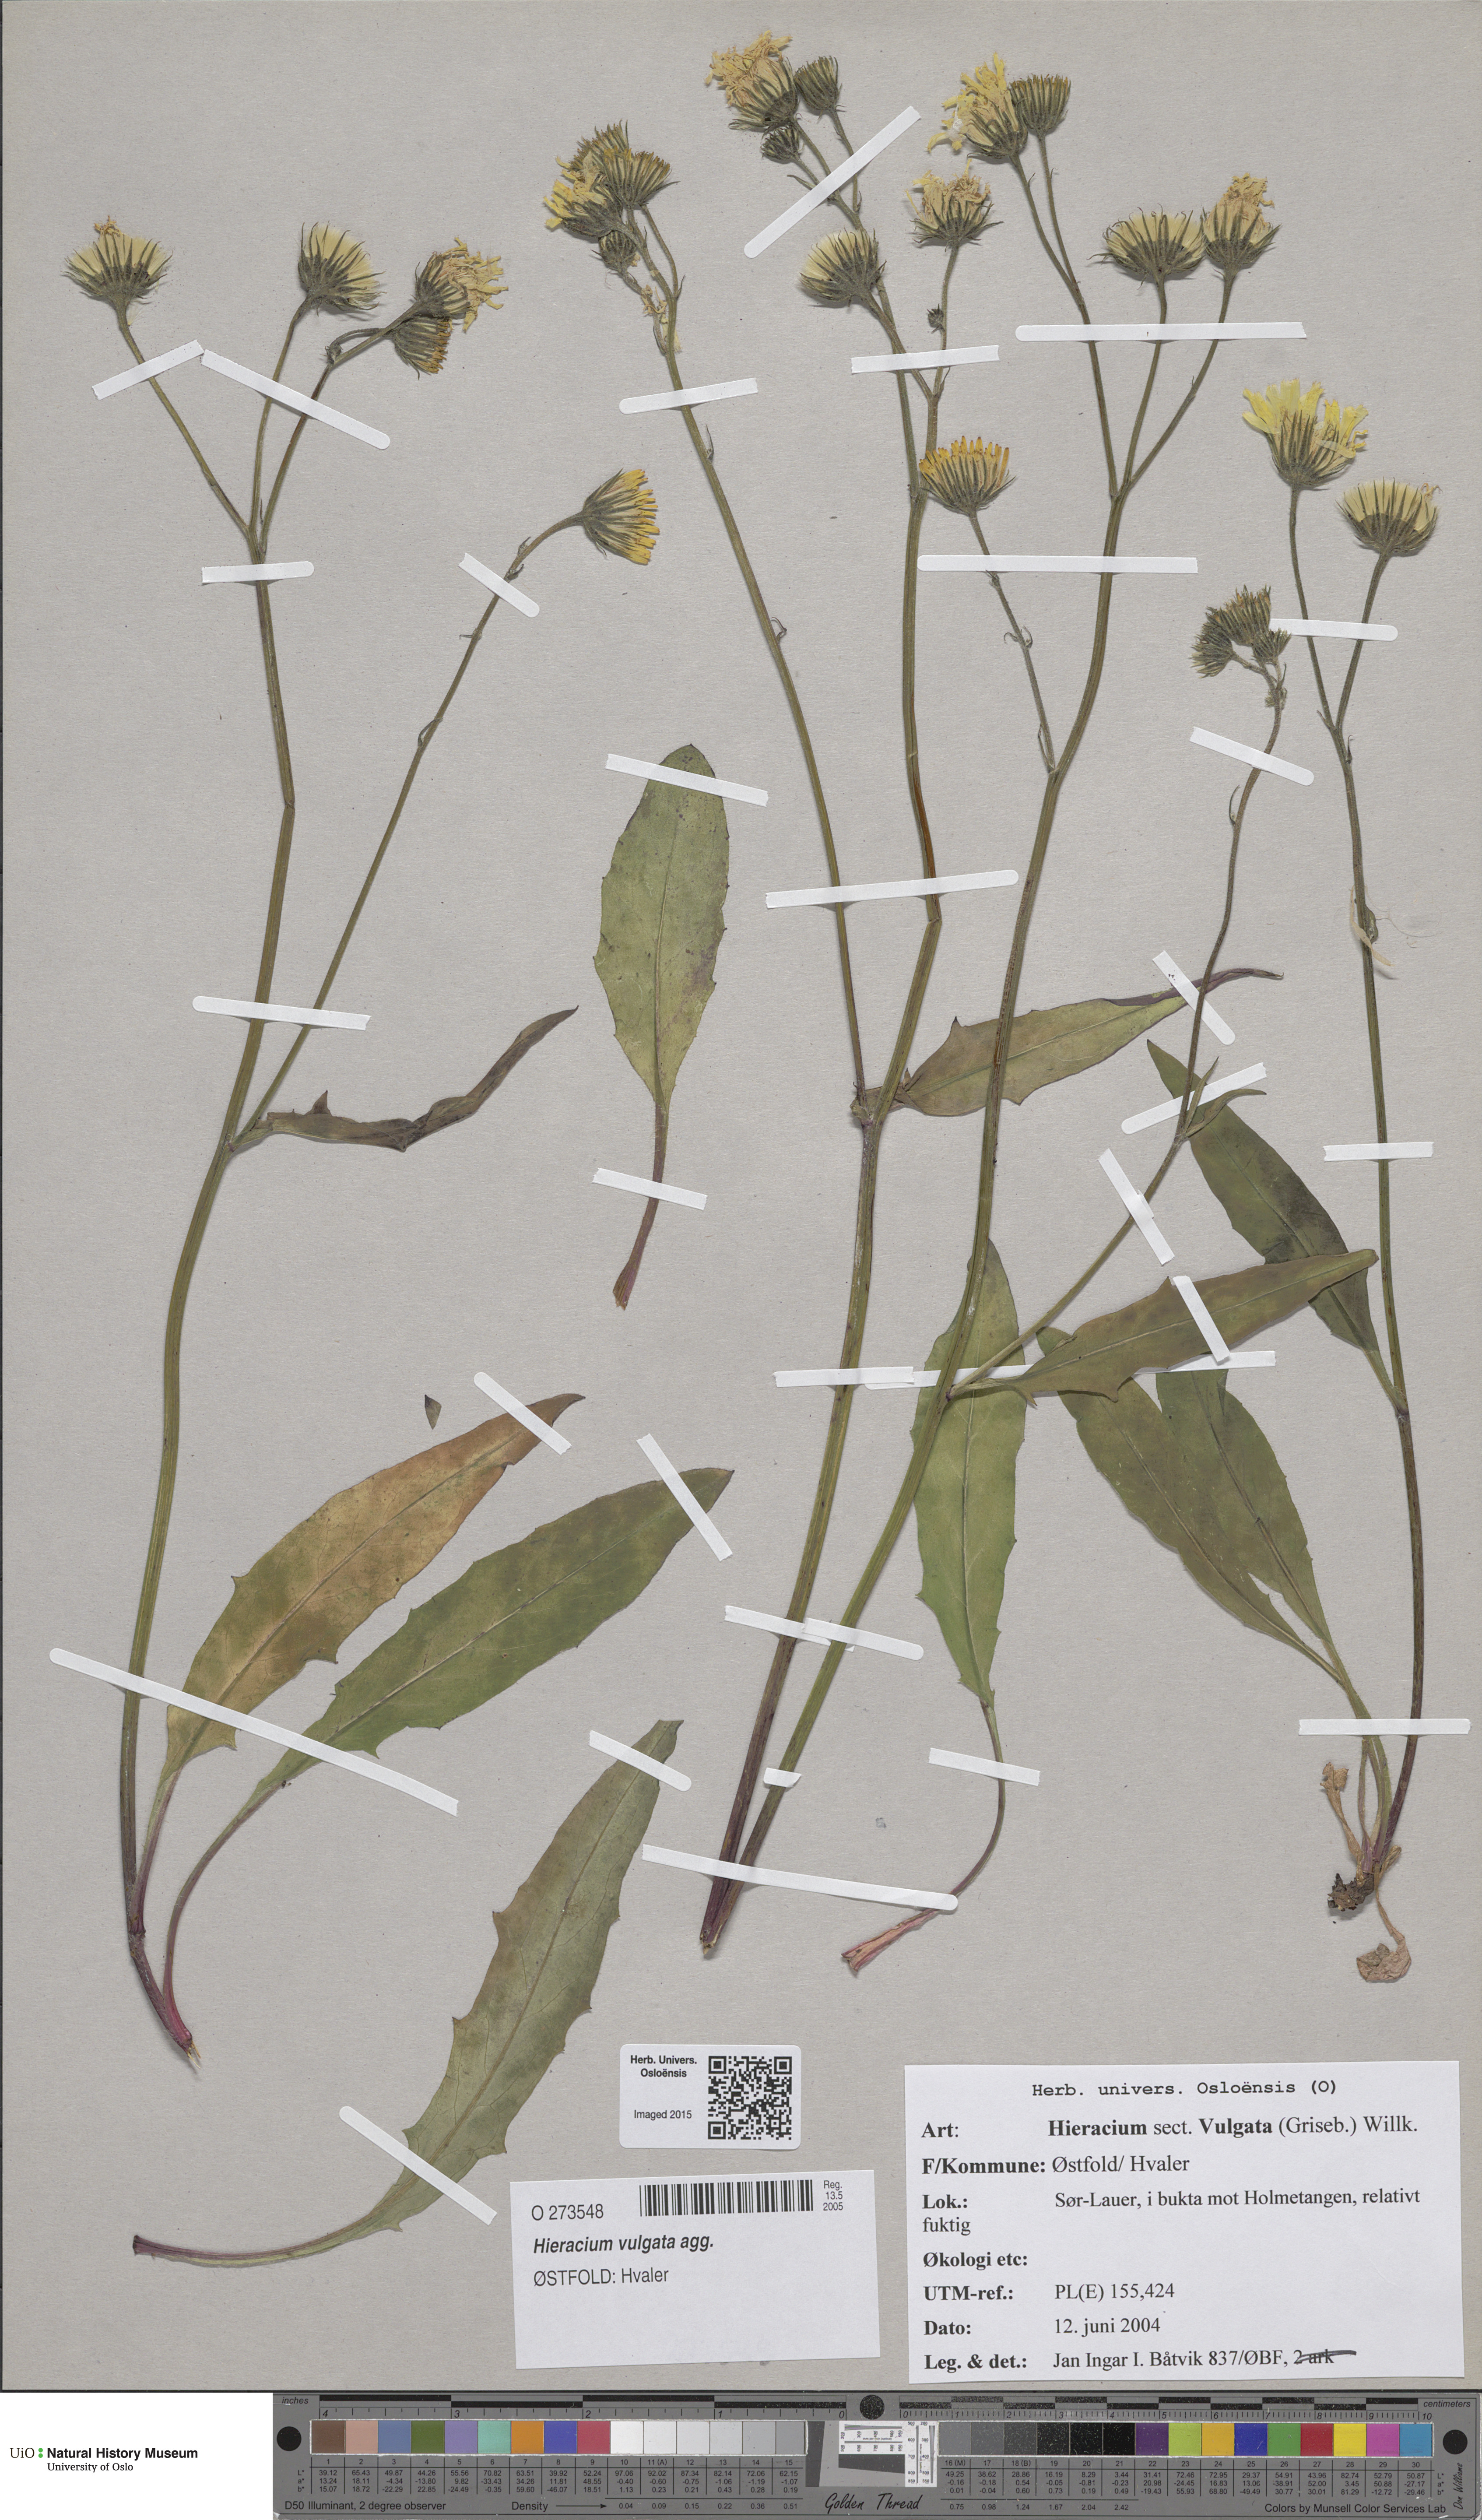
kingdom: Plantae
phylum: Tracheophyta
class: Magnoliopsida
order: Asterales
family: Asteraceae
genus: Hieracium
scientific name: Hieracium vulgatum
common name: Common hawkweed
